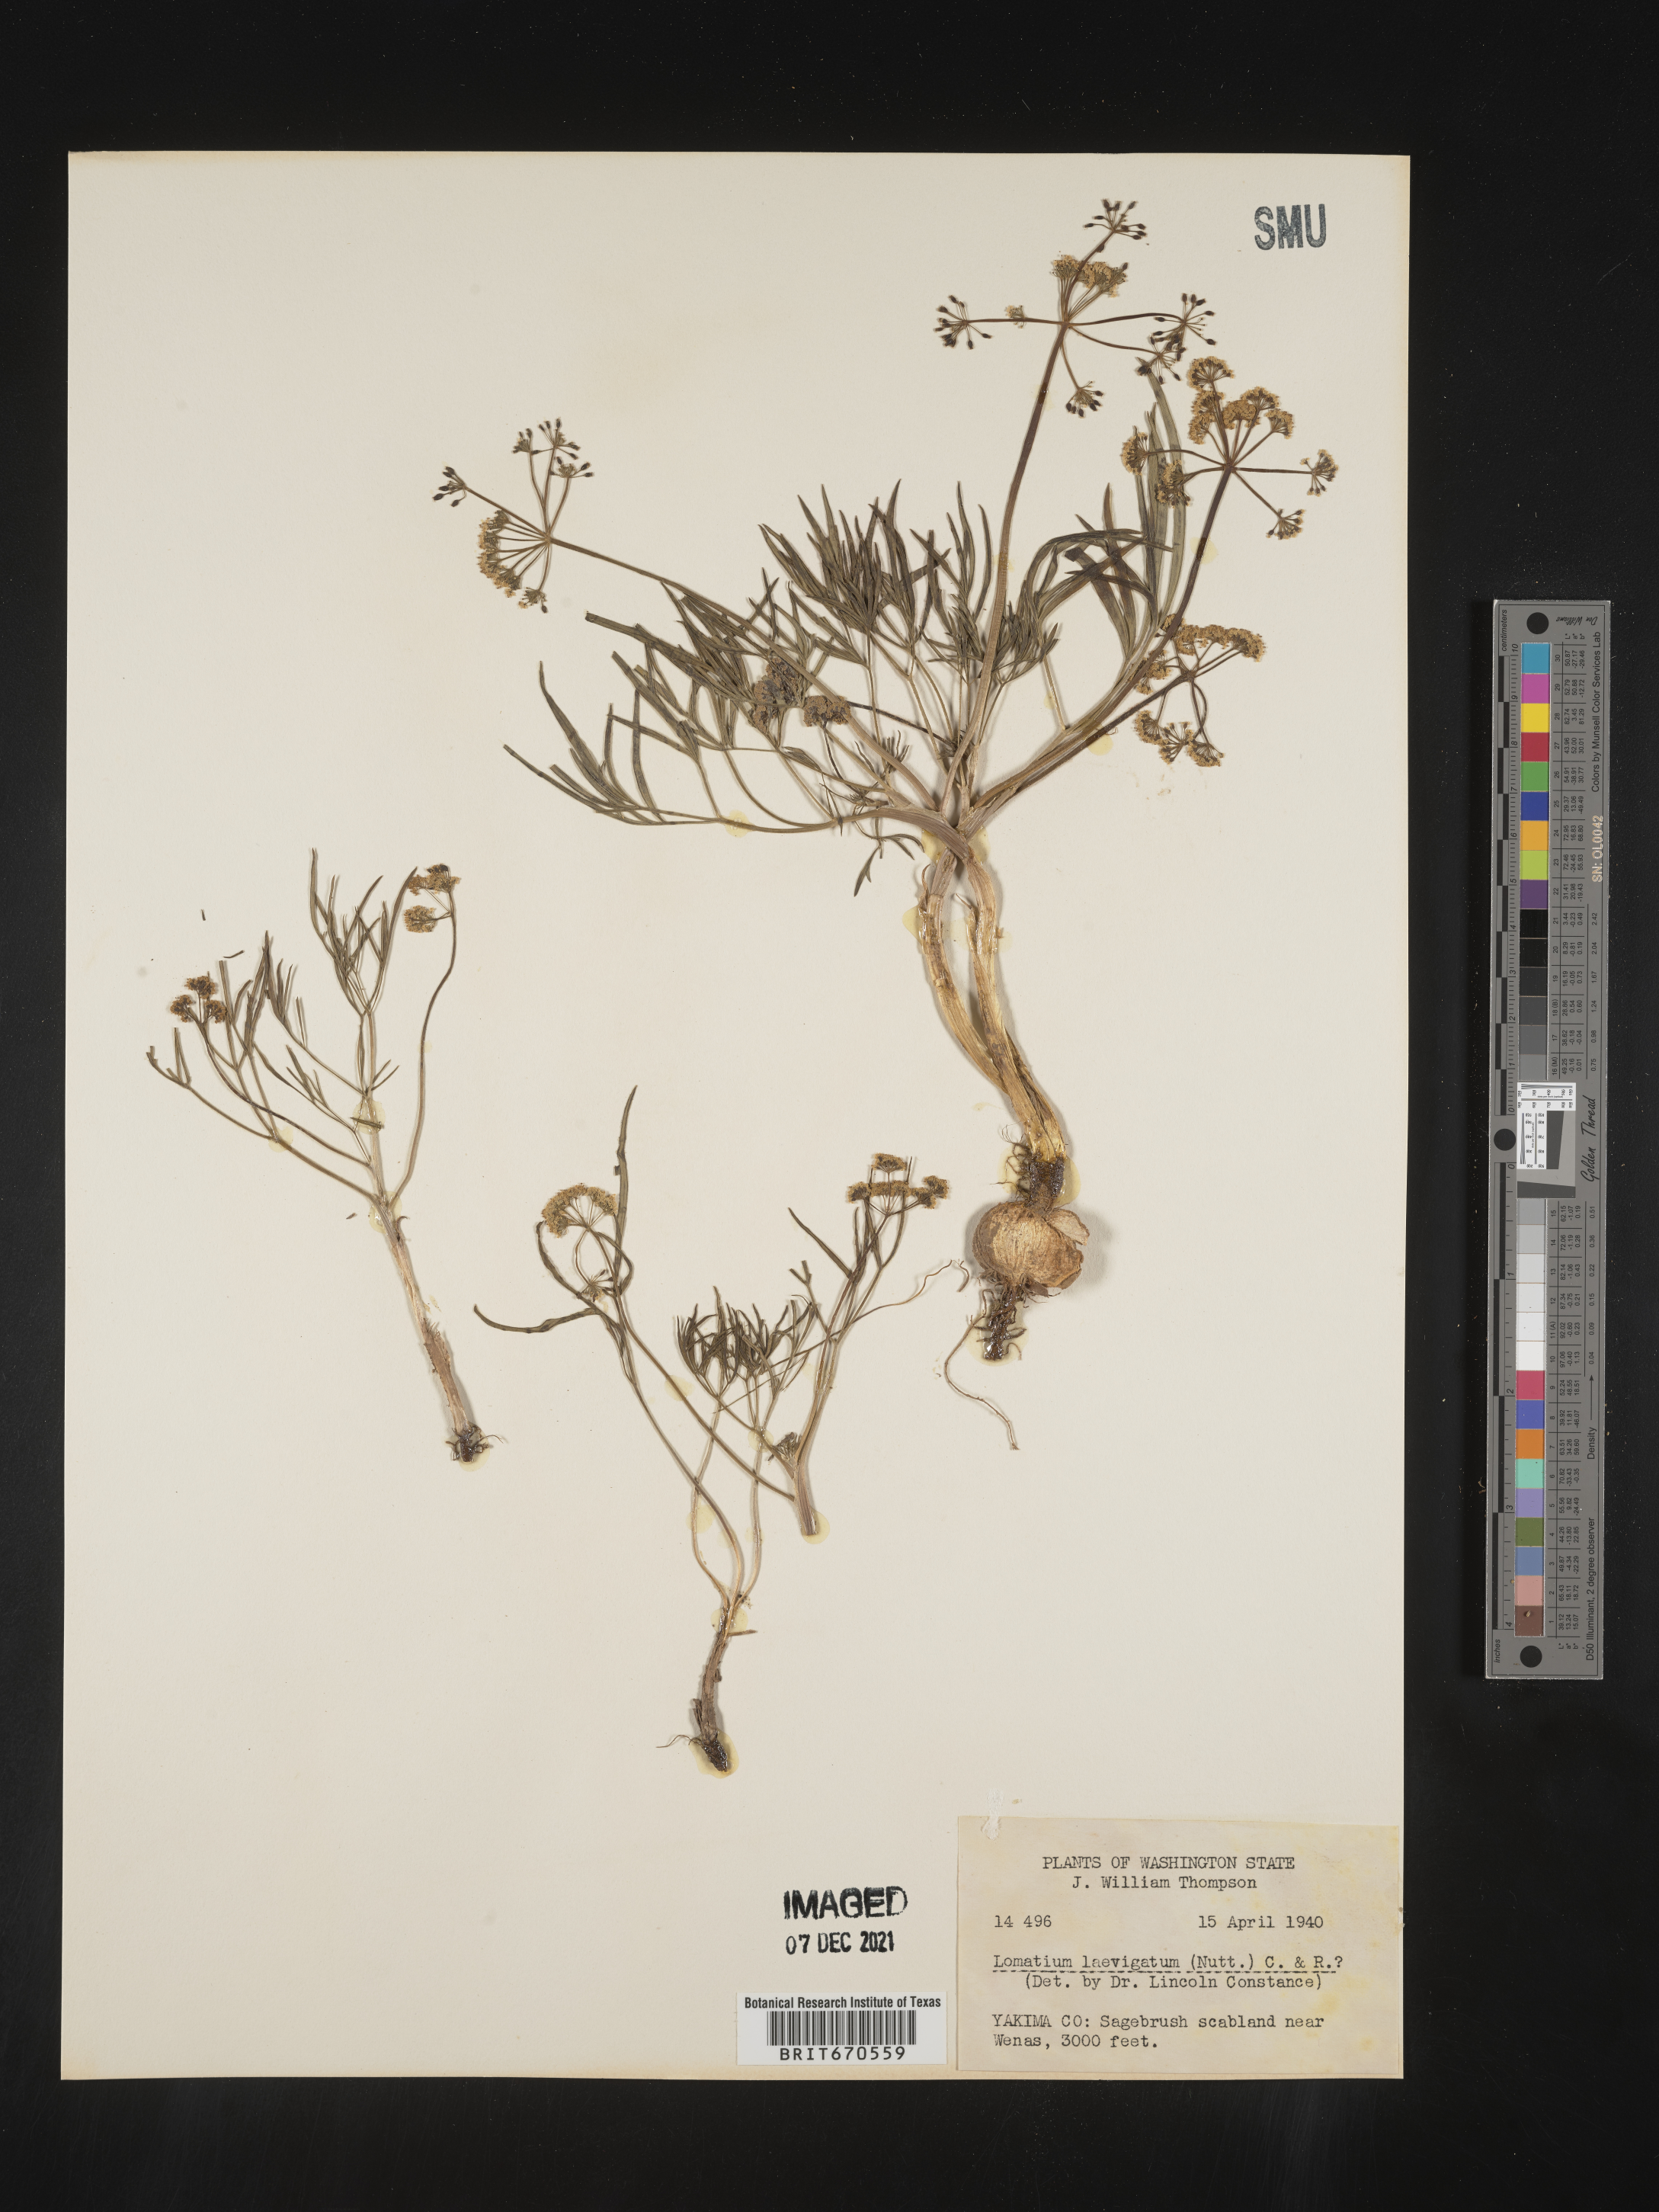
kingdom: Plantae
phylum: Tracheophyta
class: Magnoliopsida
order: Apiales
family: Apiaceae
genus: Lomatium
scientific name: Lomatium laevigatum
